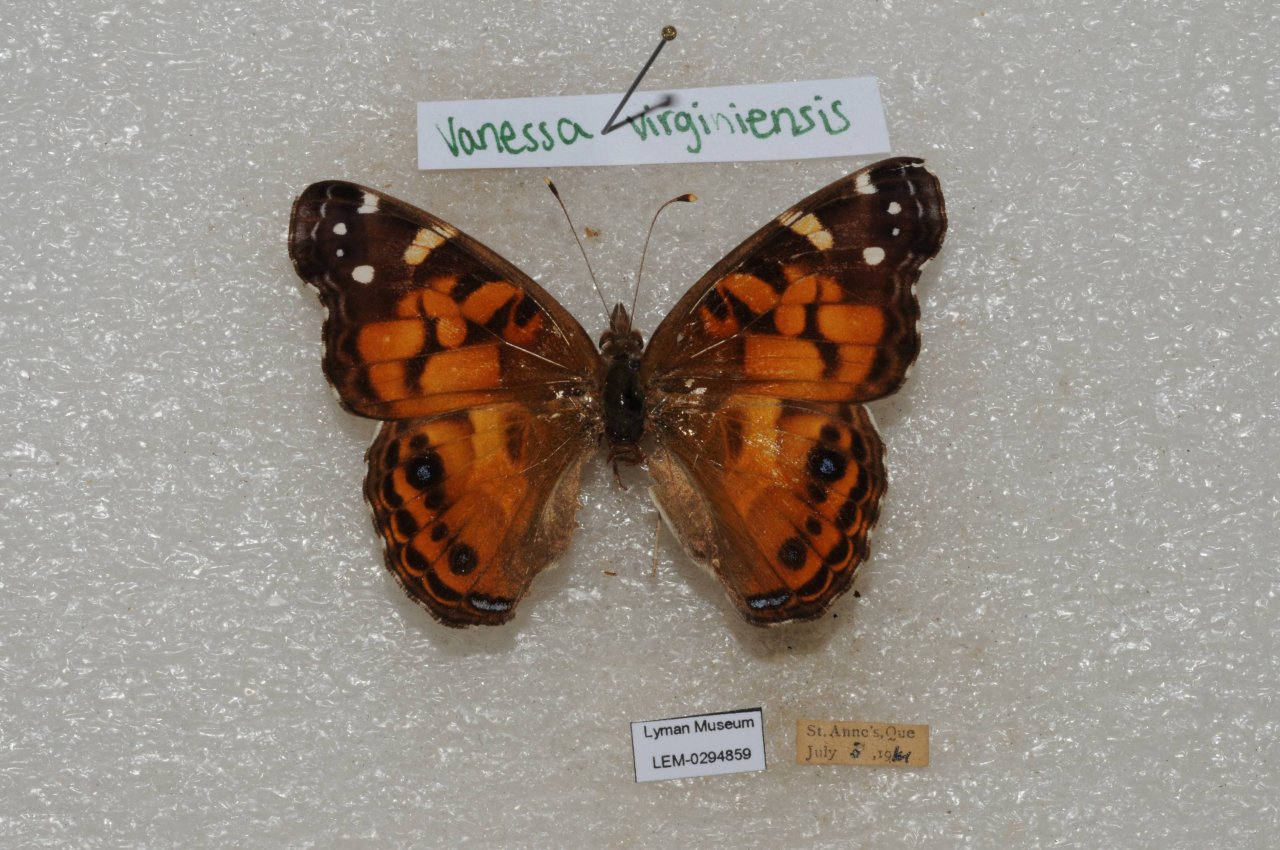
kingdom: Animalia
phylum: Arthropoda
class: Insecta
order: Lepidoptera
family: Nymphalidae
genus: Vanessa
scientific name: Vanessa virginiensis
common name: American Lady
